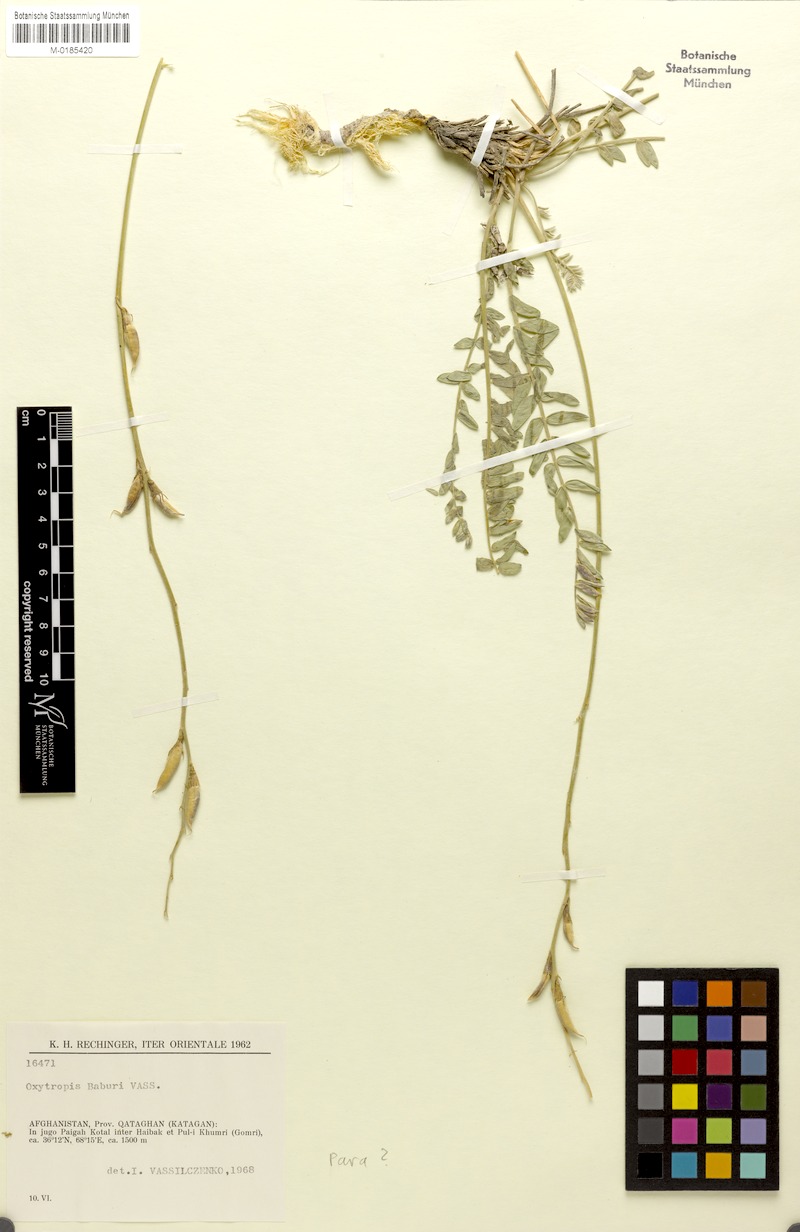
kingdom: Plantae
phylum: Tracheophyta
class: Magnoliopsida
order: Fabales
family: Fabaceae
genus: Oxytropis
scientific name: Oxytropis baburi
